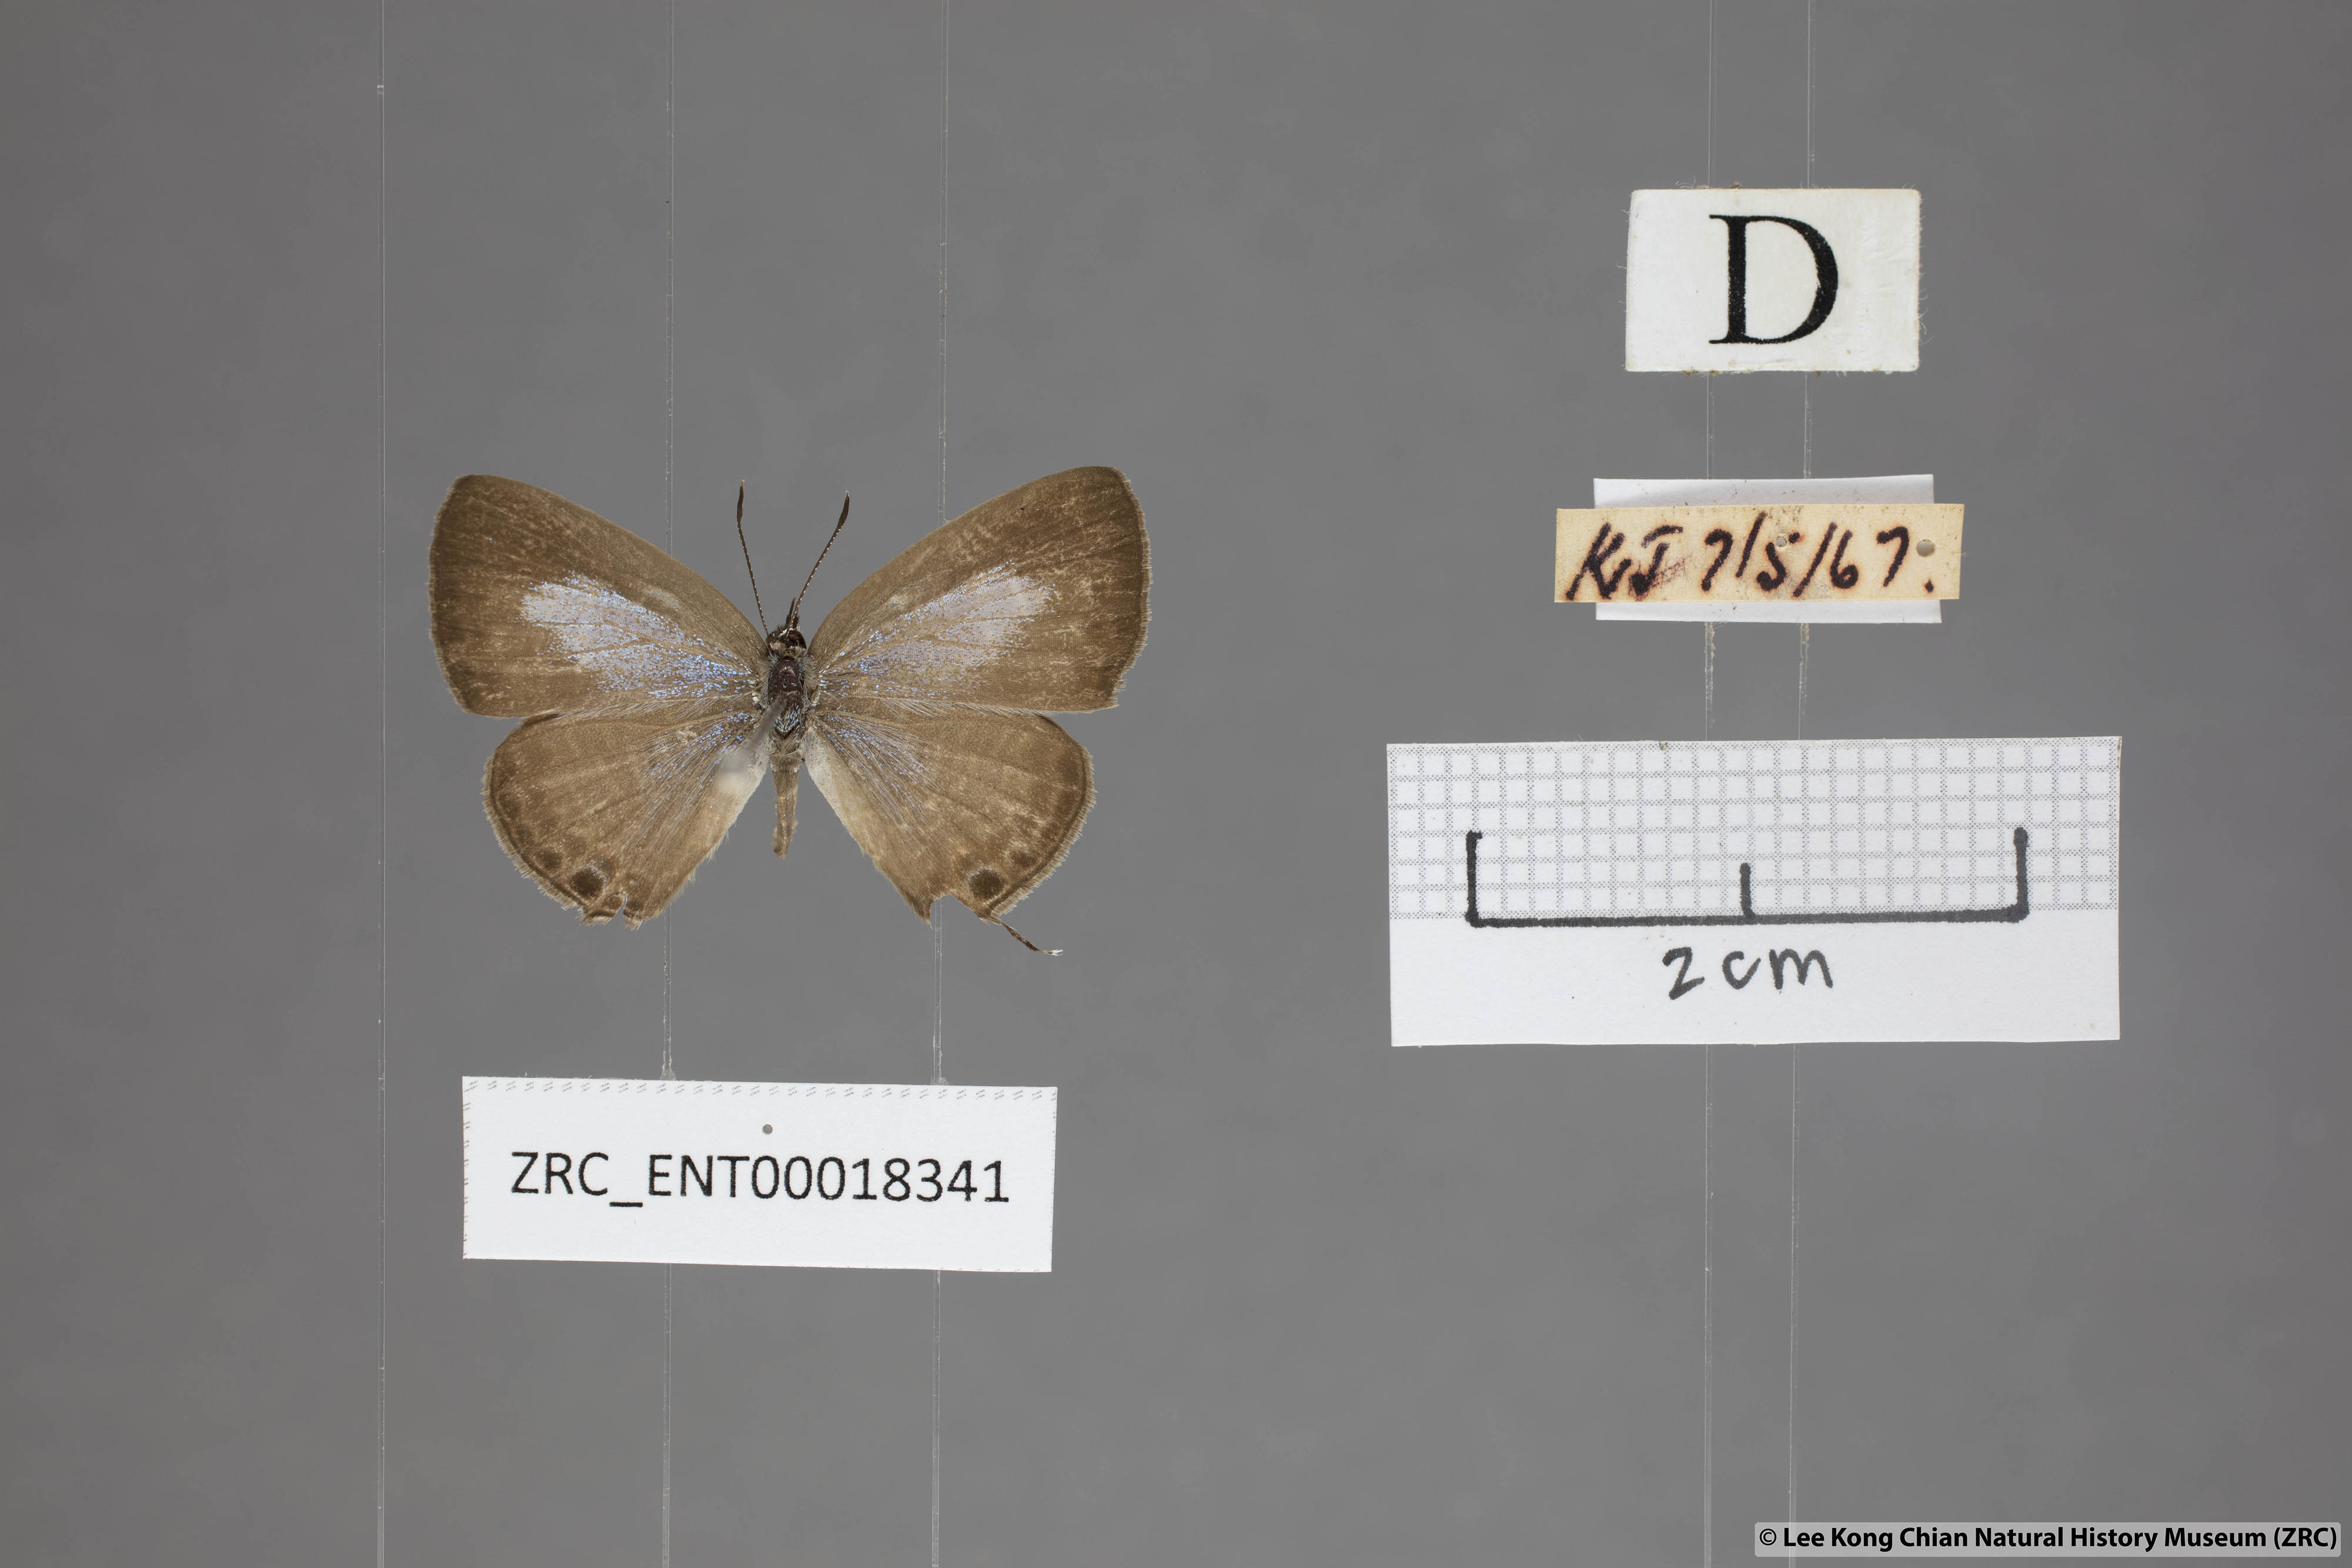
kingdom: Animalia
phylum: Arthropoda
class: Insecta
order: Lepidoptera
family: Lycaenidae
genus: Nacaduba
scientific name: Nacaduba calauria
